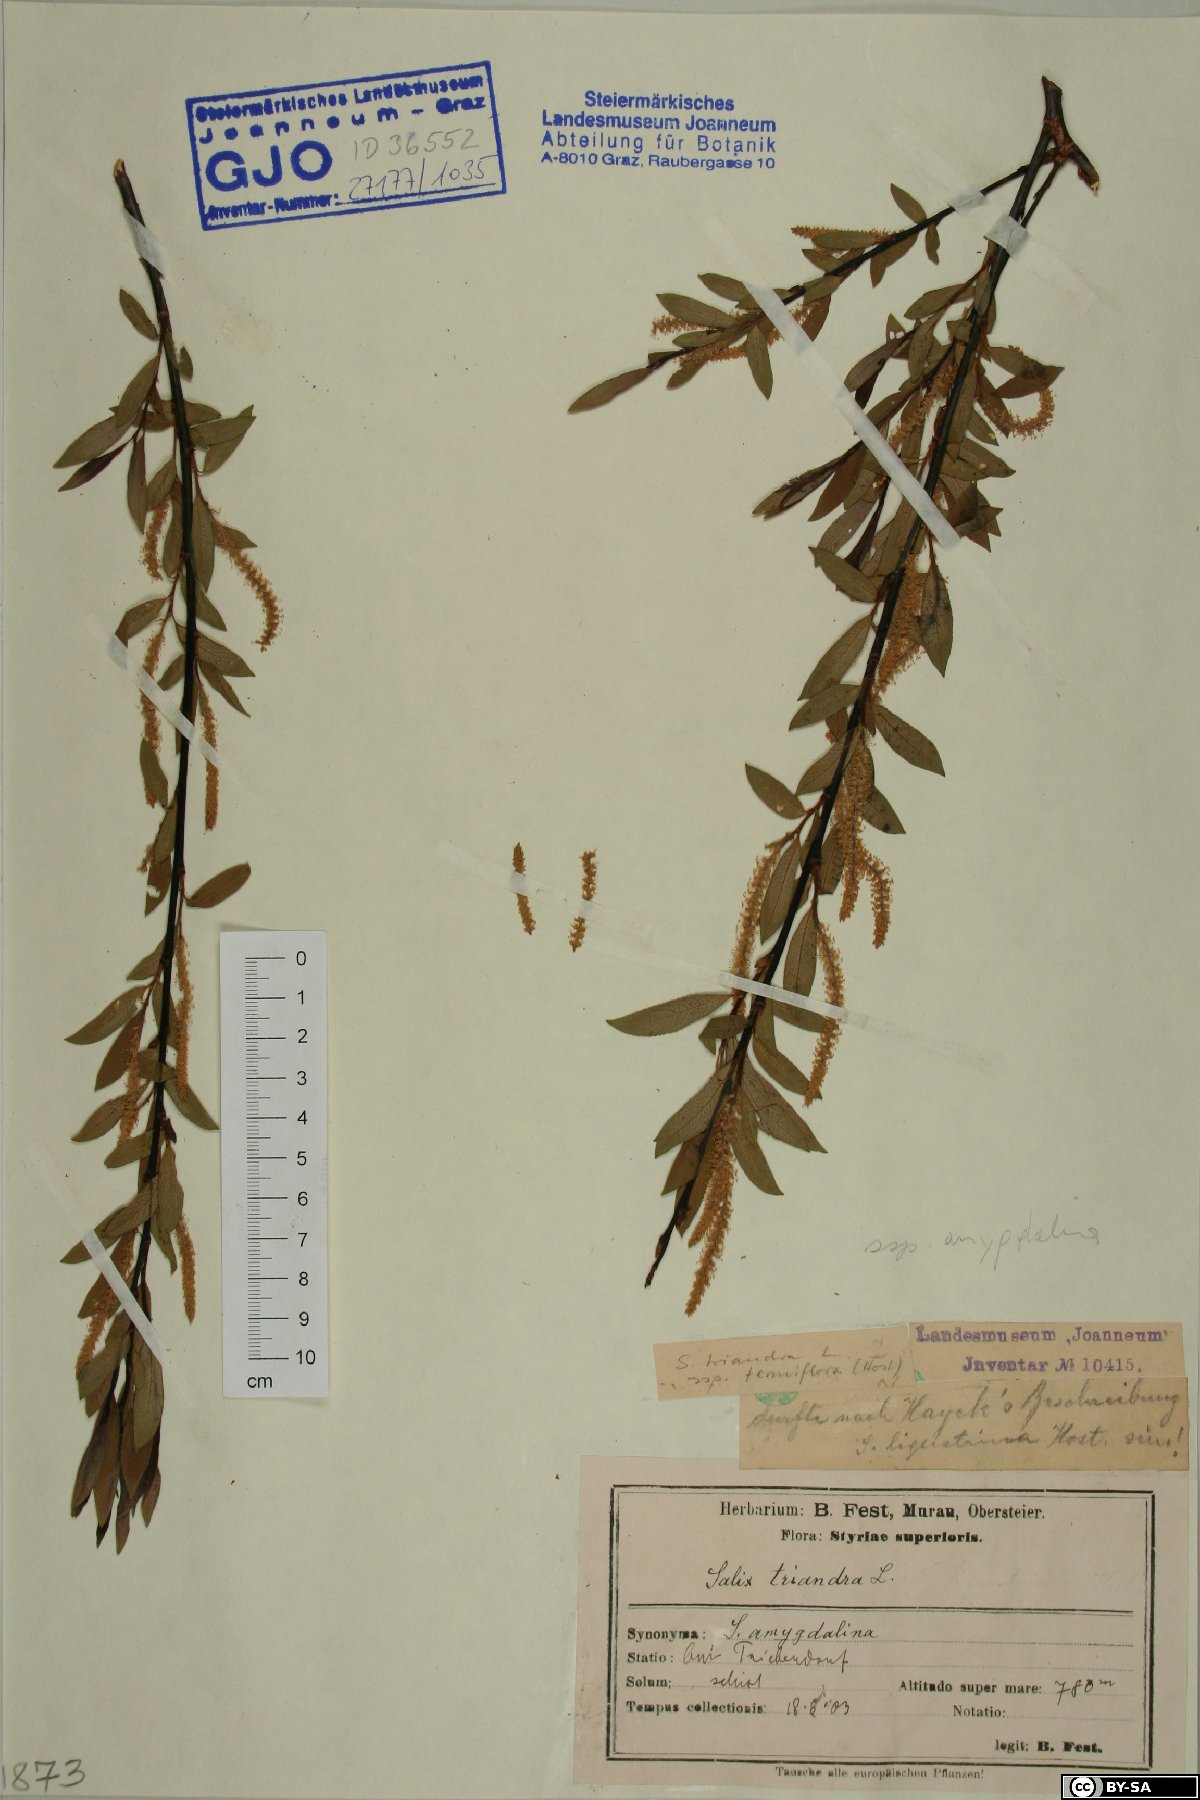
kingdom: Plantae
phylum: Tracheophyta
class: Magnoliopsida
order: Malpighiales
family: Salicaceae
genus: Salix
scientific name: Salix triandra
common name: Almond willow
